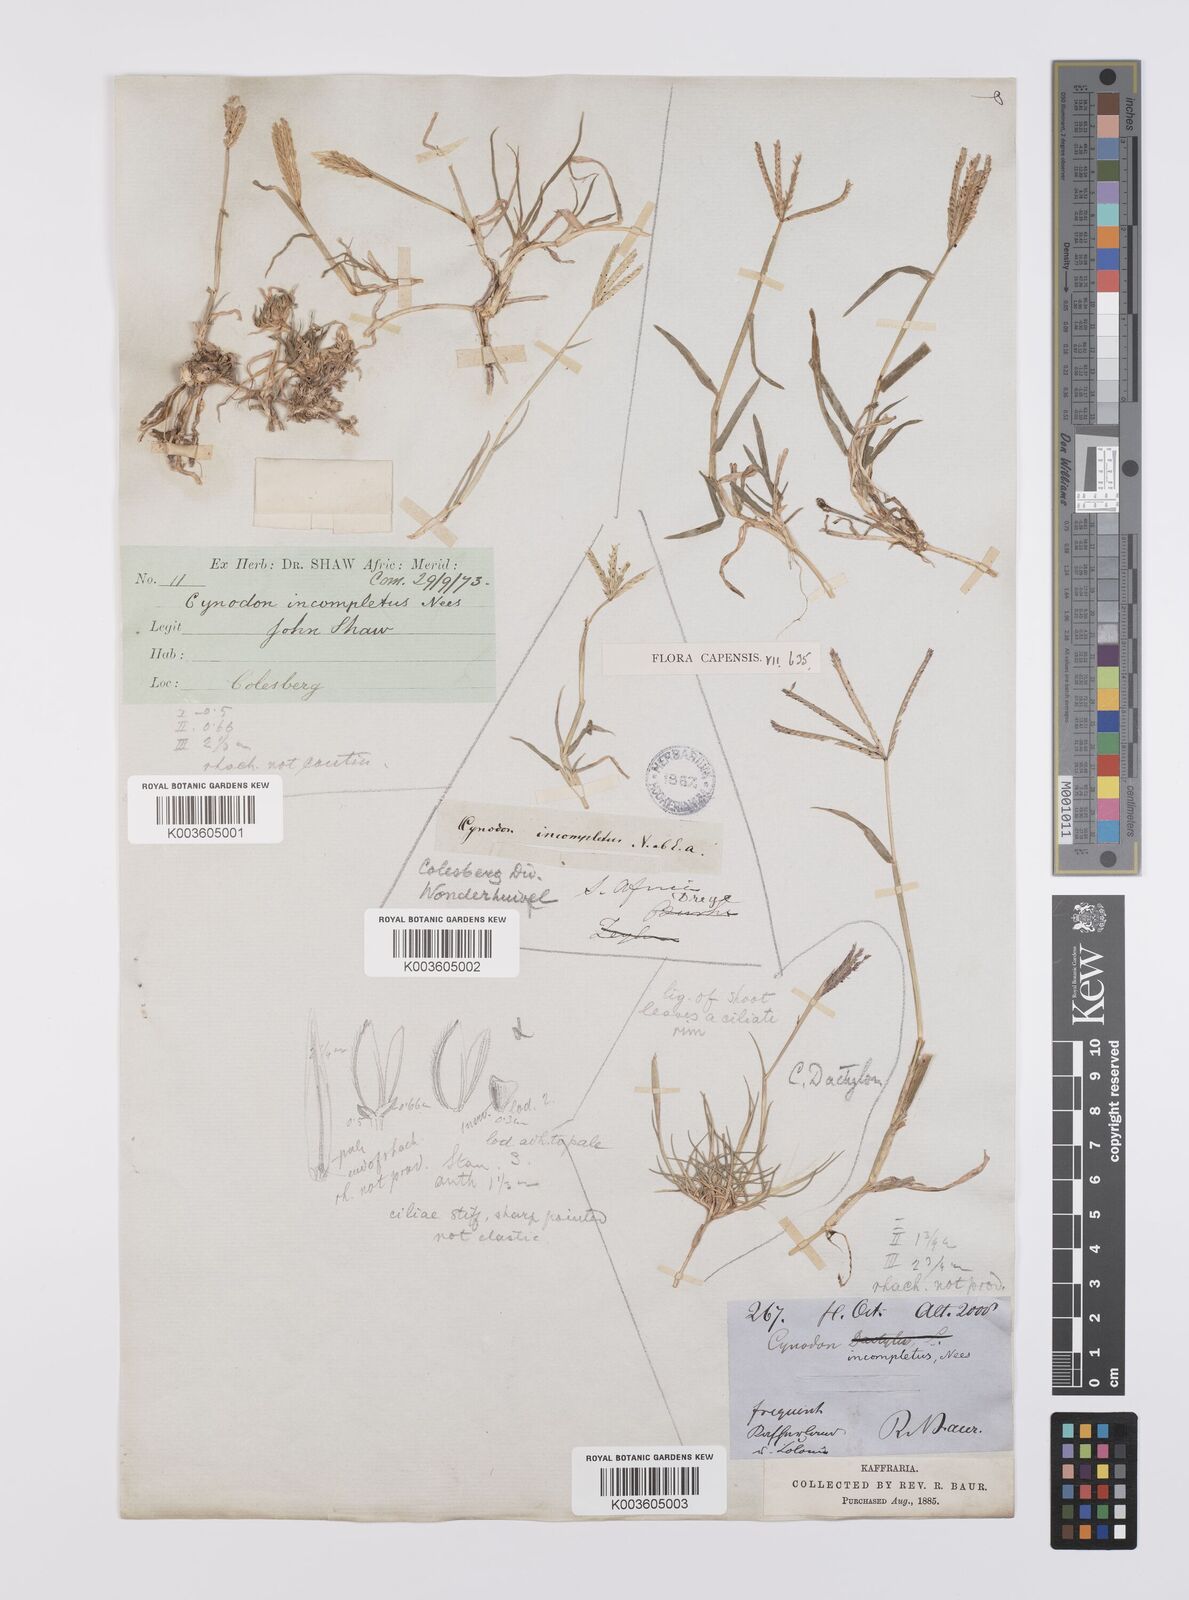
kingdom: Plantae
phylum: Tracheophyta
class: Liliopsida
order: Poales
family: Poaceae
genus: Cynodon
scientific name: Cynodon incompletus
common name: African bermuda-grass
